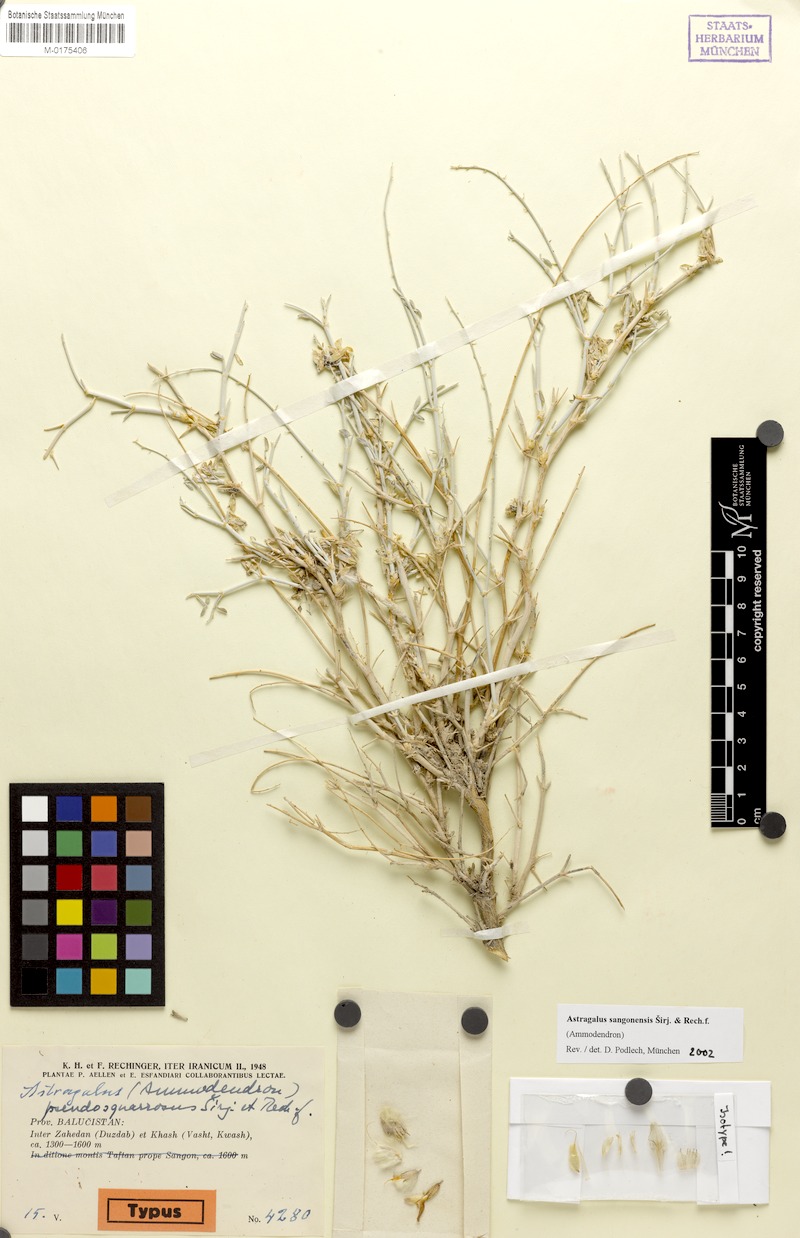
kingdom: Plantae
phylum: Tracheophyta
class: Magnoliopsida
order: Fabales
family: Fabaceae
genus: Astragalus
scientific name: Astragalus sangonensis
